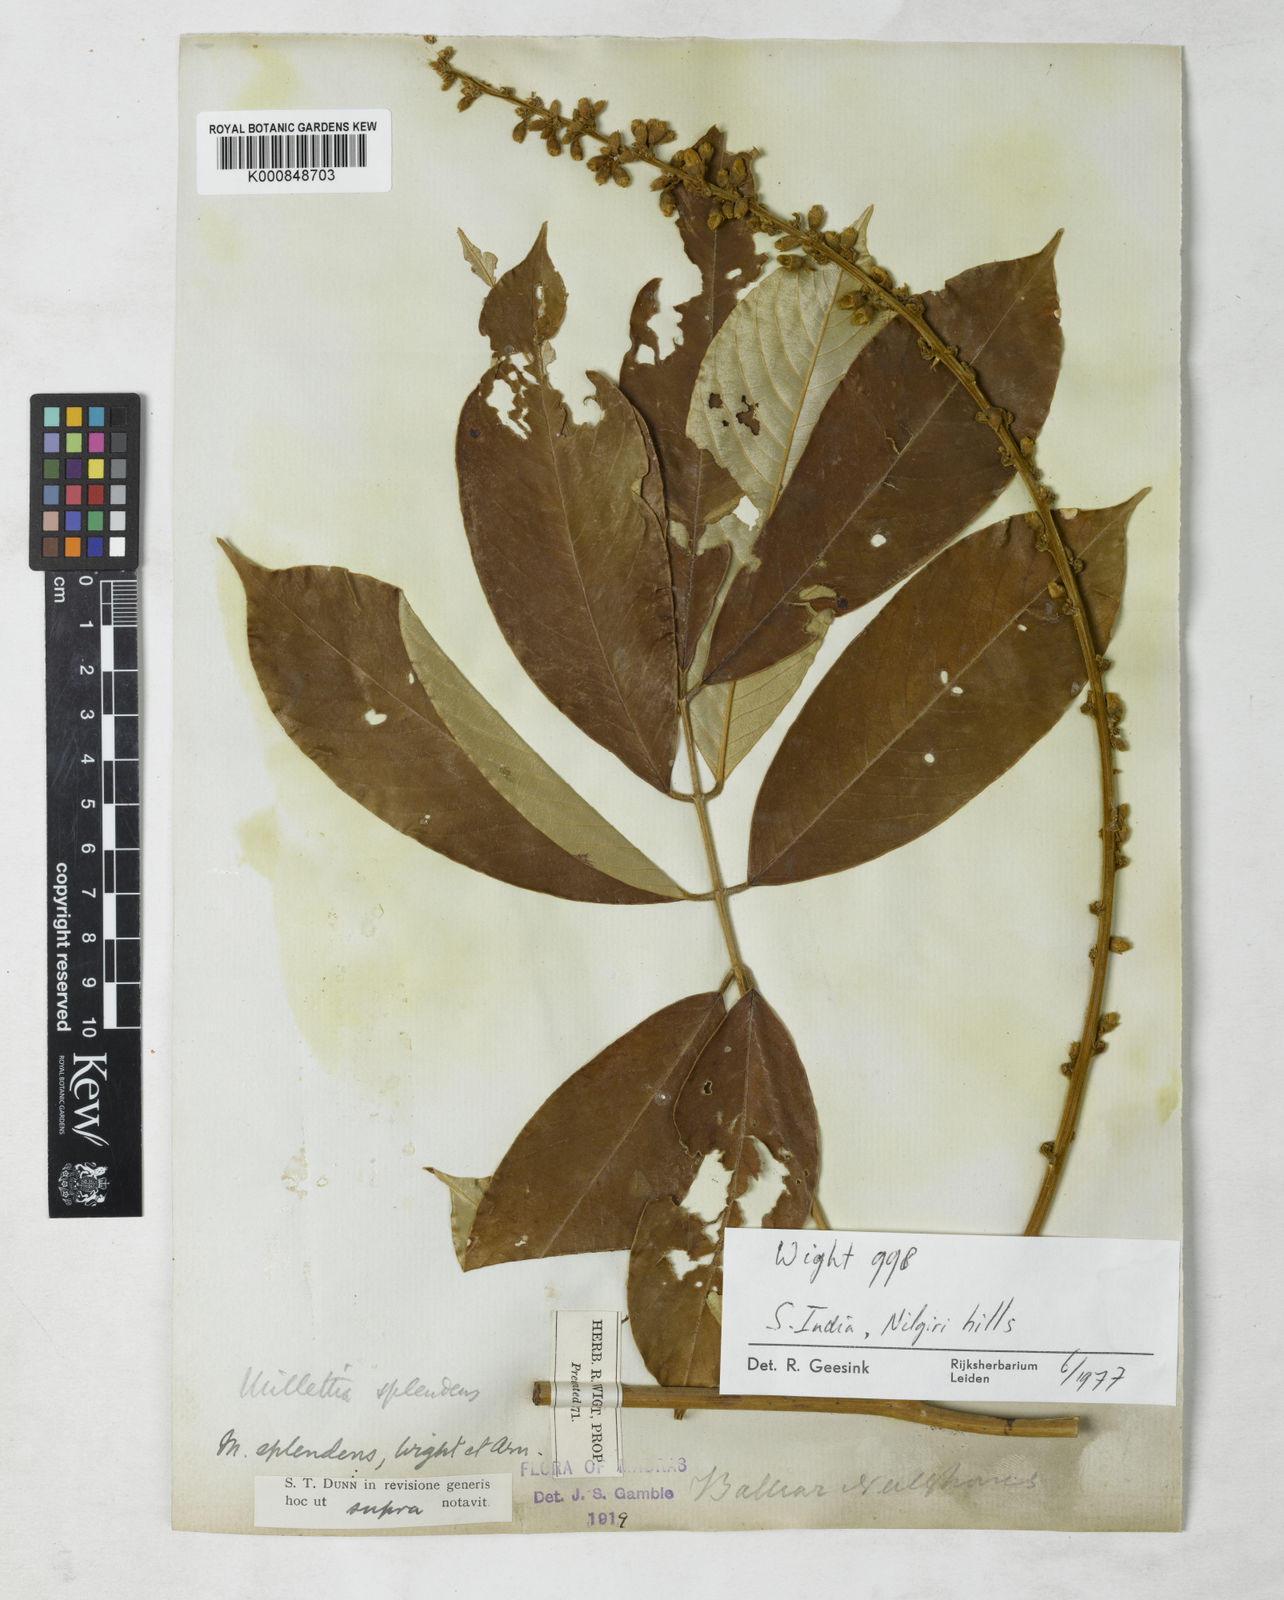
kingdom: Plantae
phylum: Tracheophyta
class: Magnoliopsida
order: Fabales
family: Fabaceae
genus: Millettia
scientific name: Millettia splendens
